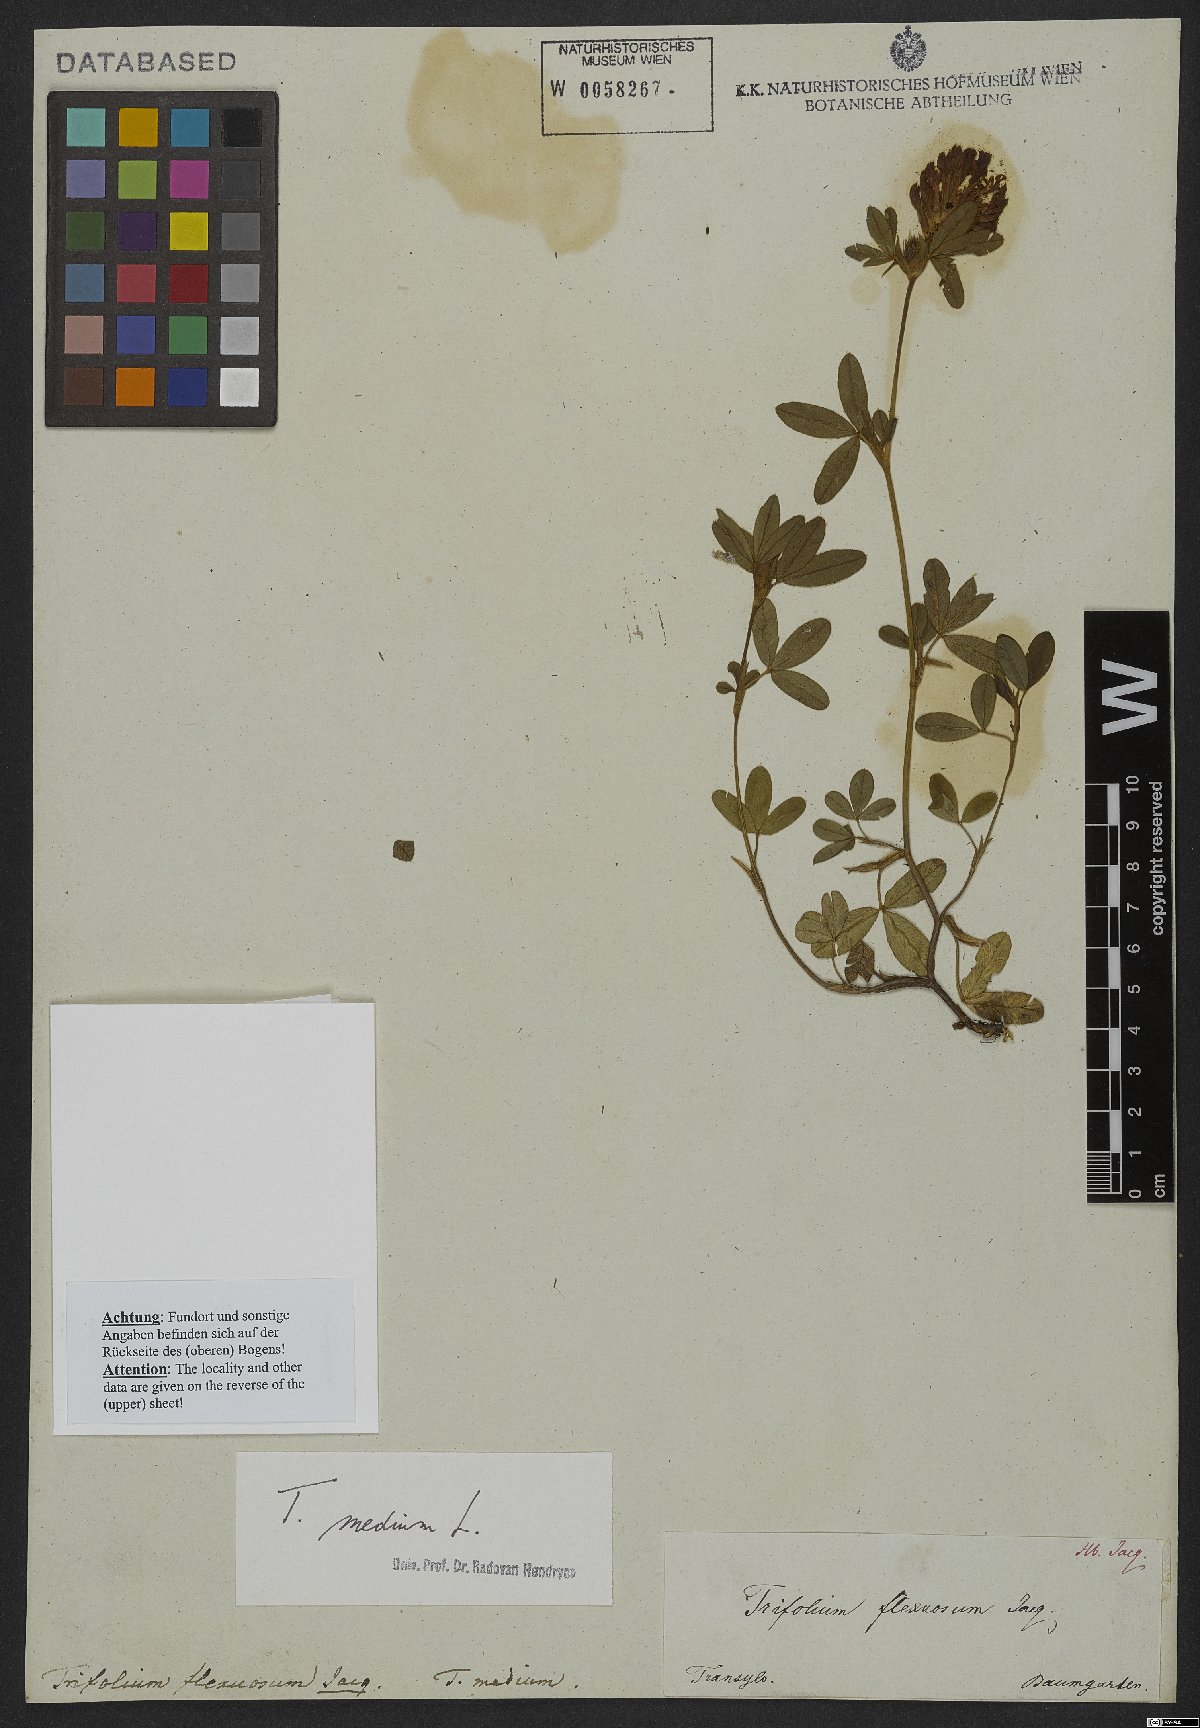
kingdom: Plantae
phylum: Tracheophyta
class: Magnoliopsida
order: Fabales
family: Fabaceae
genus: Trifolium
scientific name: Trifolium medium
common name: Zigzag clover
